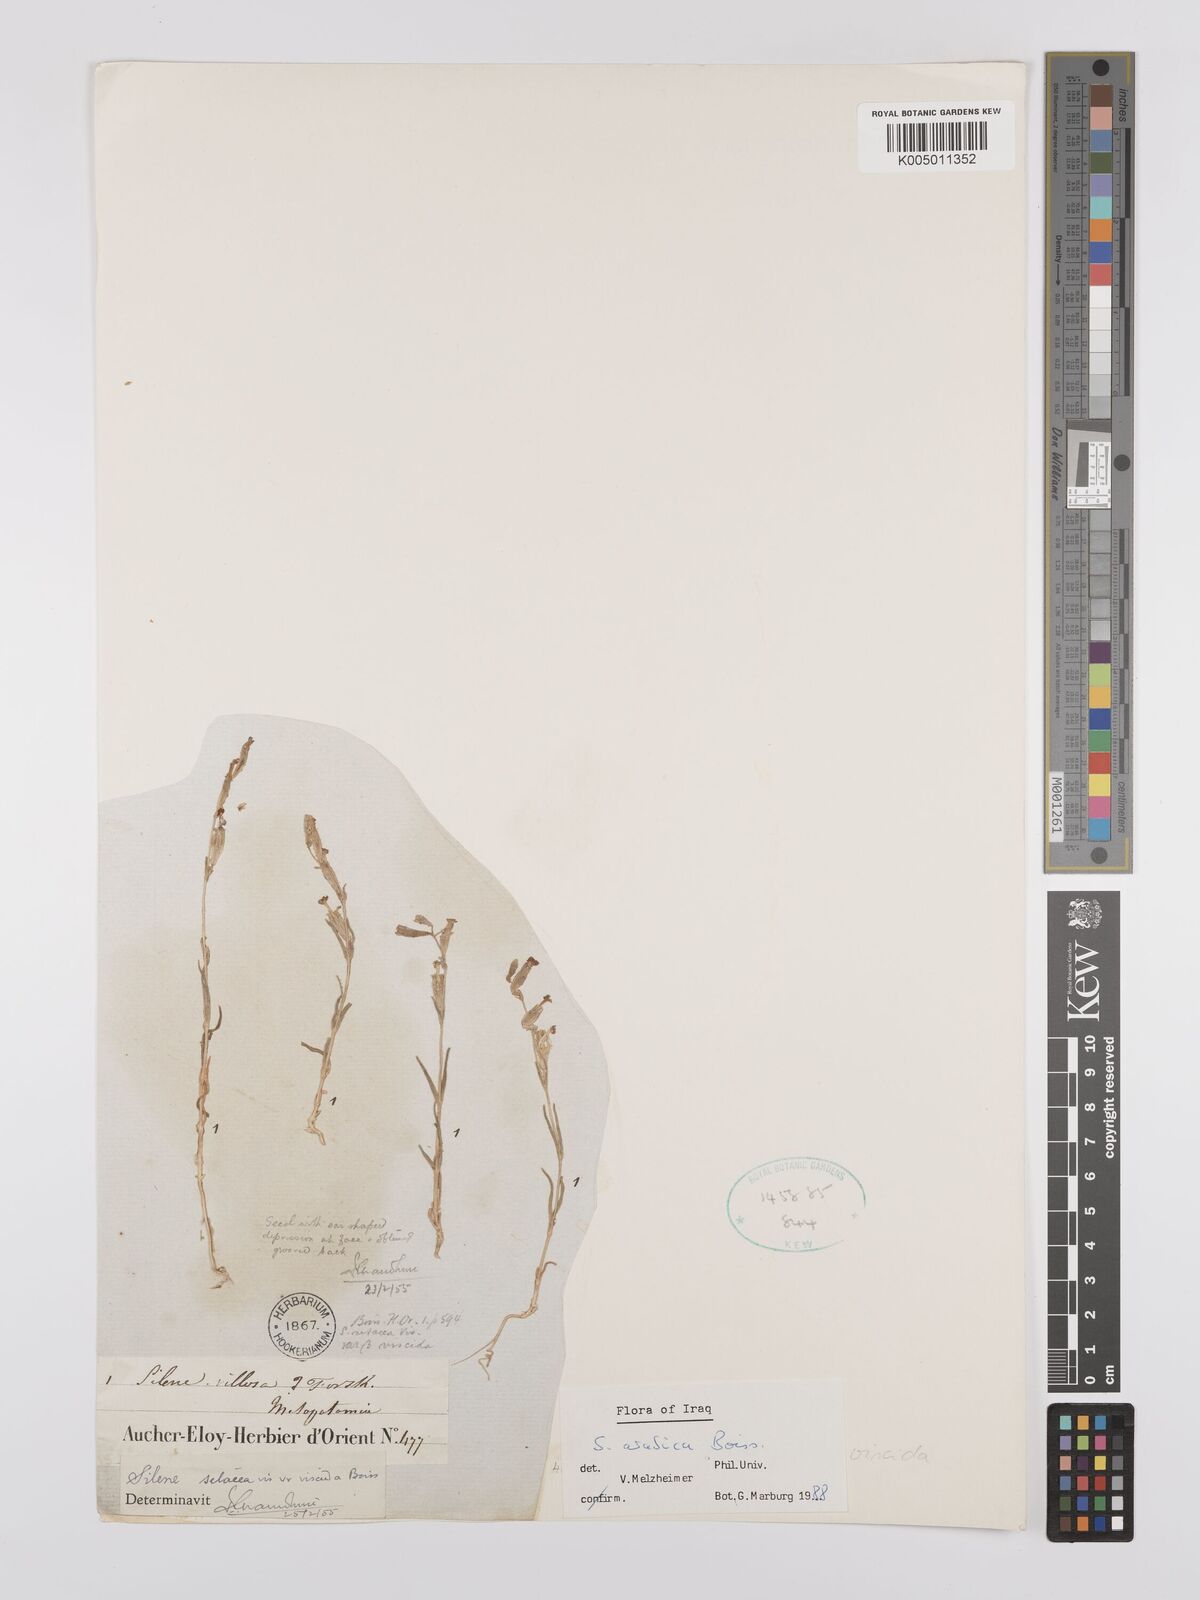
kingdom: Plantae
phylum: Tracheophyta
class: Magnoliopsida
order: Caryophyllales
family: Caryophyllaceae
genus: Silene
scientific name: Silene arabica
